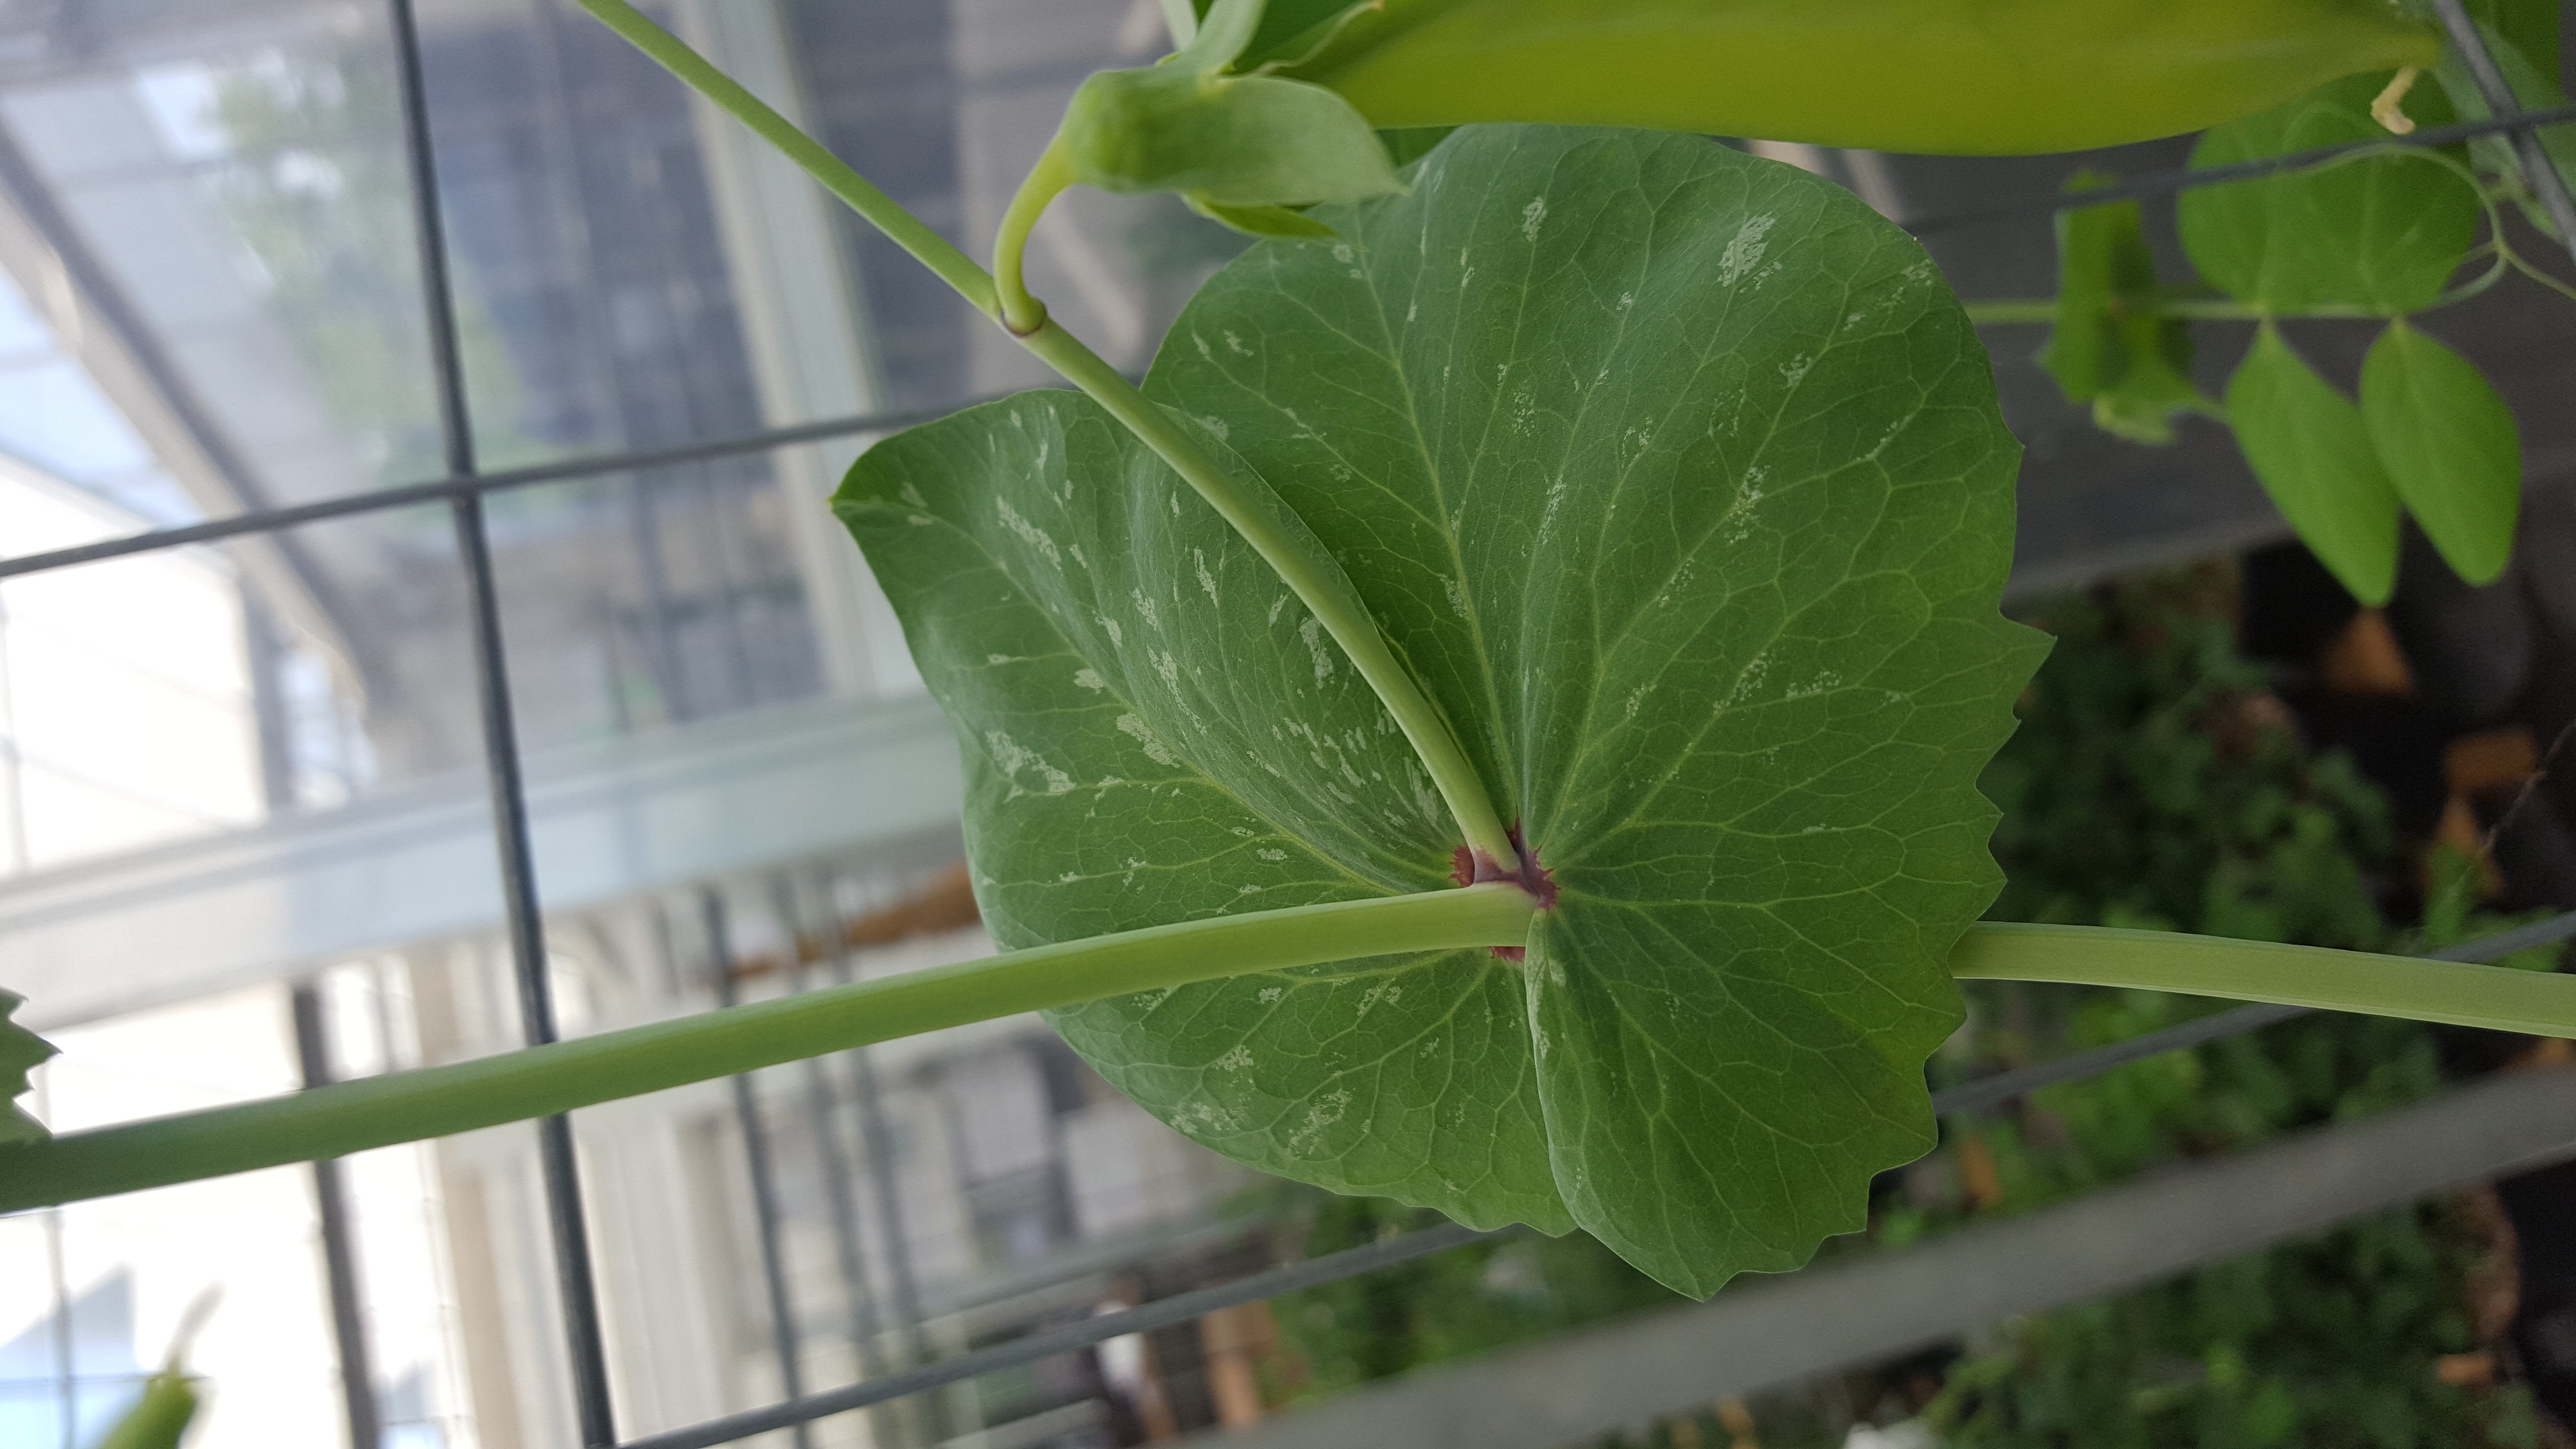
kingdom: Plantae
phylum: Tracheophyta
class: Magnoliopsida
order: Fabales
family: Fabaceae
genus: Lathyrus
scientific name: Lathyrus oleraceus
